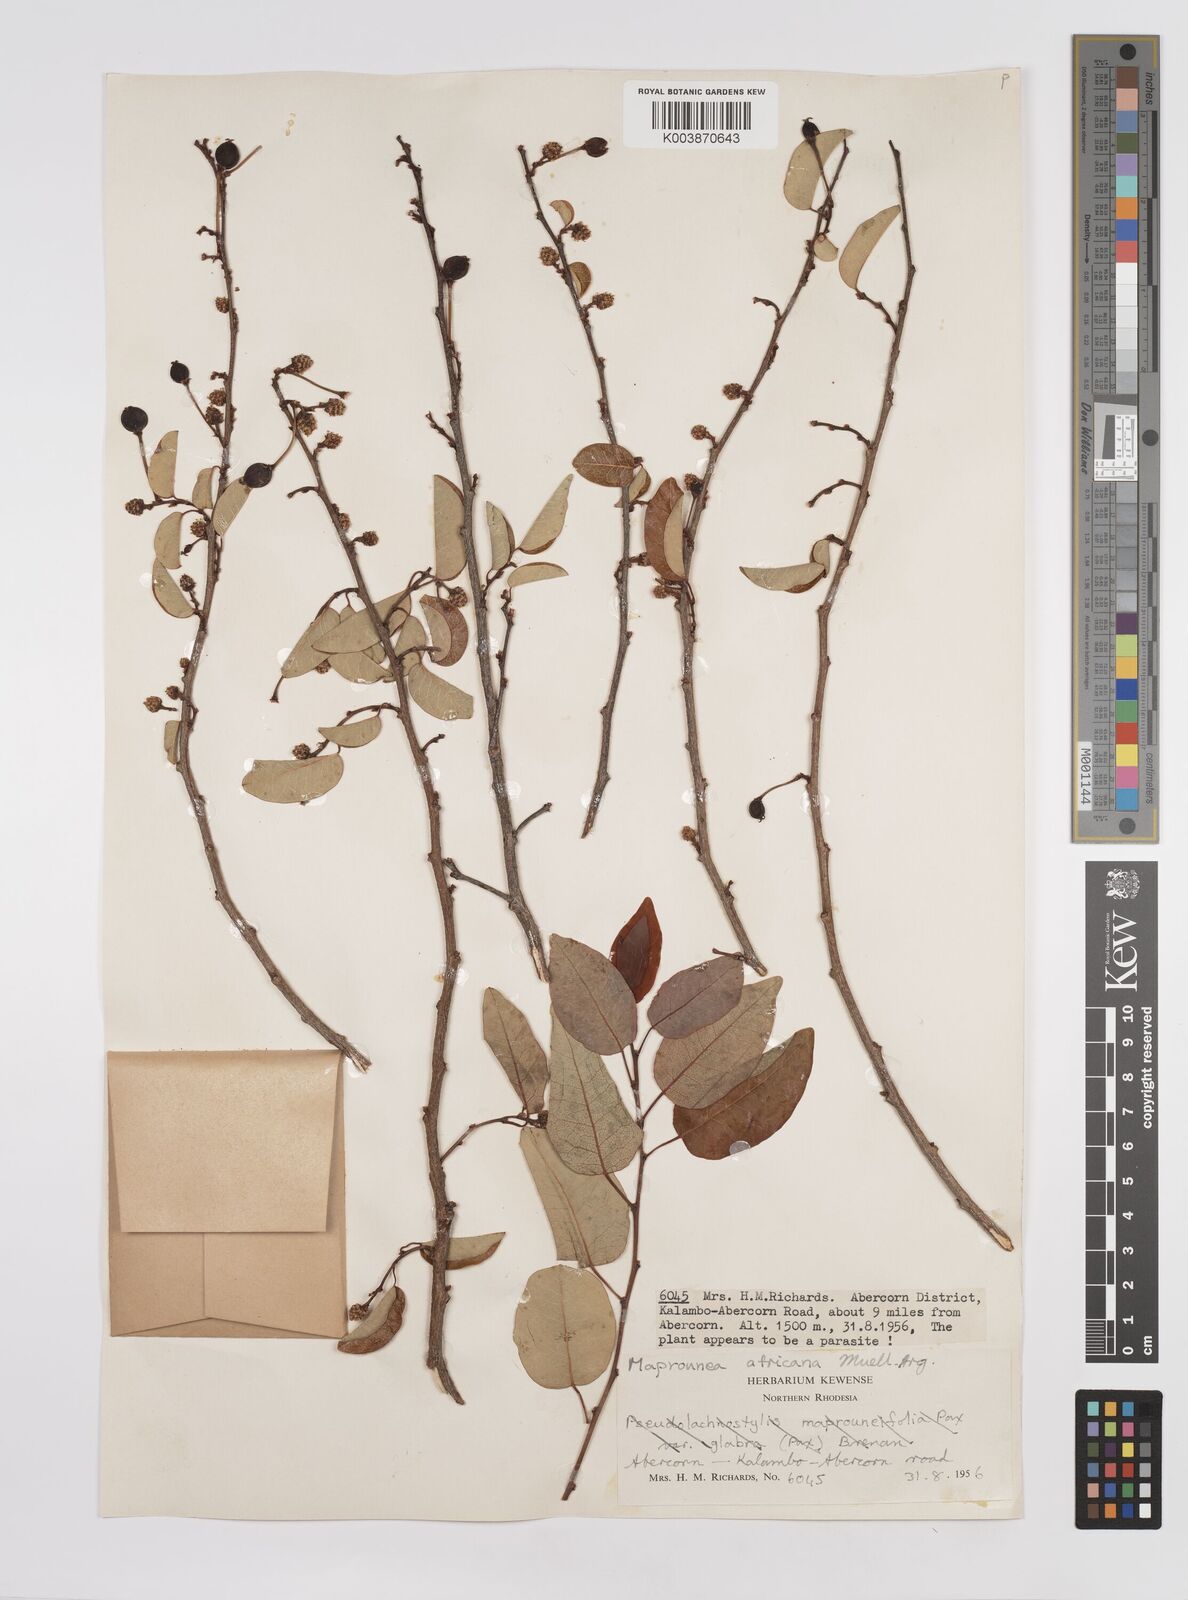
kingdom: Plantae
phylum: Tracheophyta
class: Magnoliopsida
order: Malpighiales
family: Euphorbiaceae
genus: Maprounea
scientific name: Maprounea africana
